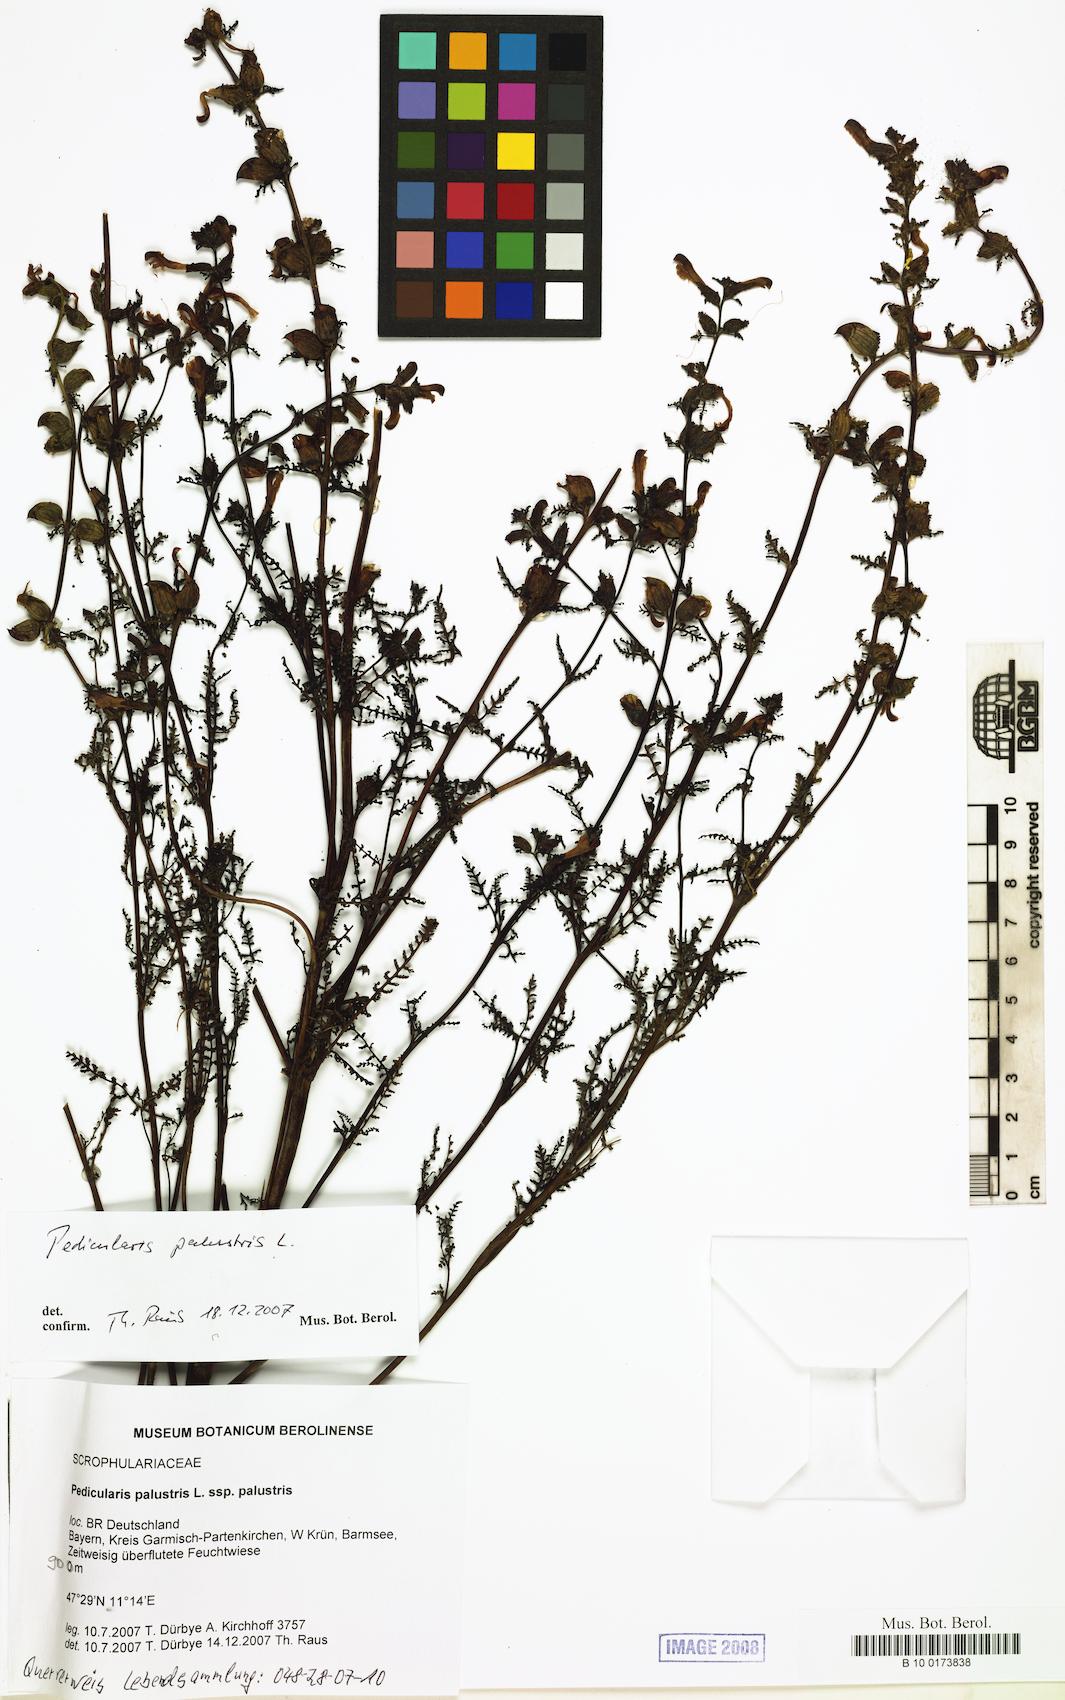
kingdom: Plantae
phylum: Tracheophyta
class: Magnoliopsida
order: Lamiales
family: Orobanchaceae
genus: Pedicularis
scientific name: Pedicularis palustris
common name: Marsh lousewort
